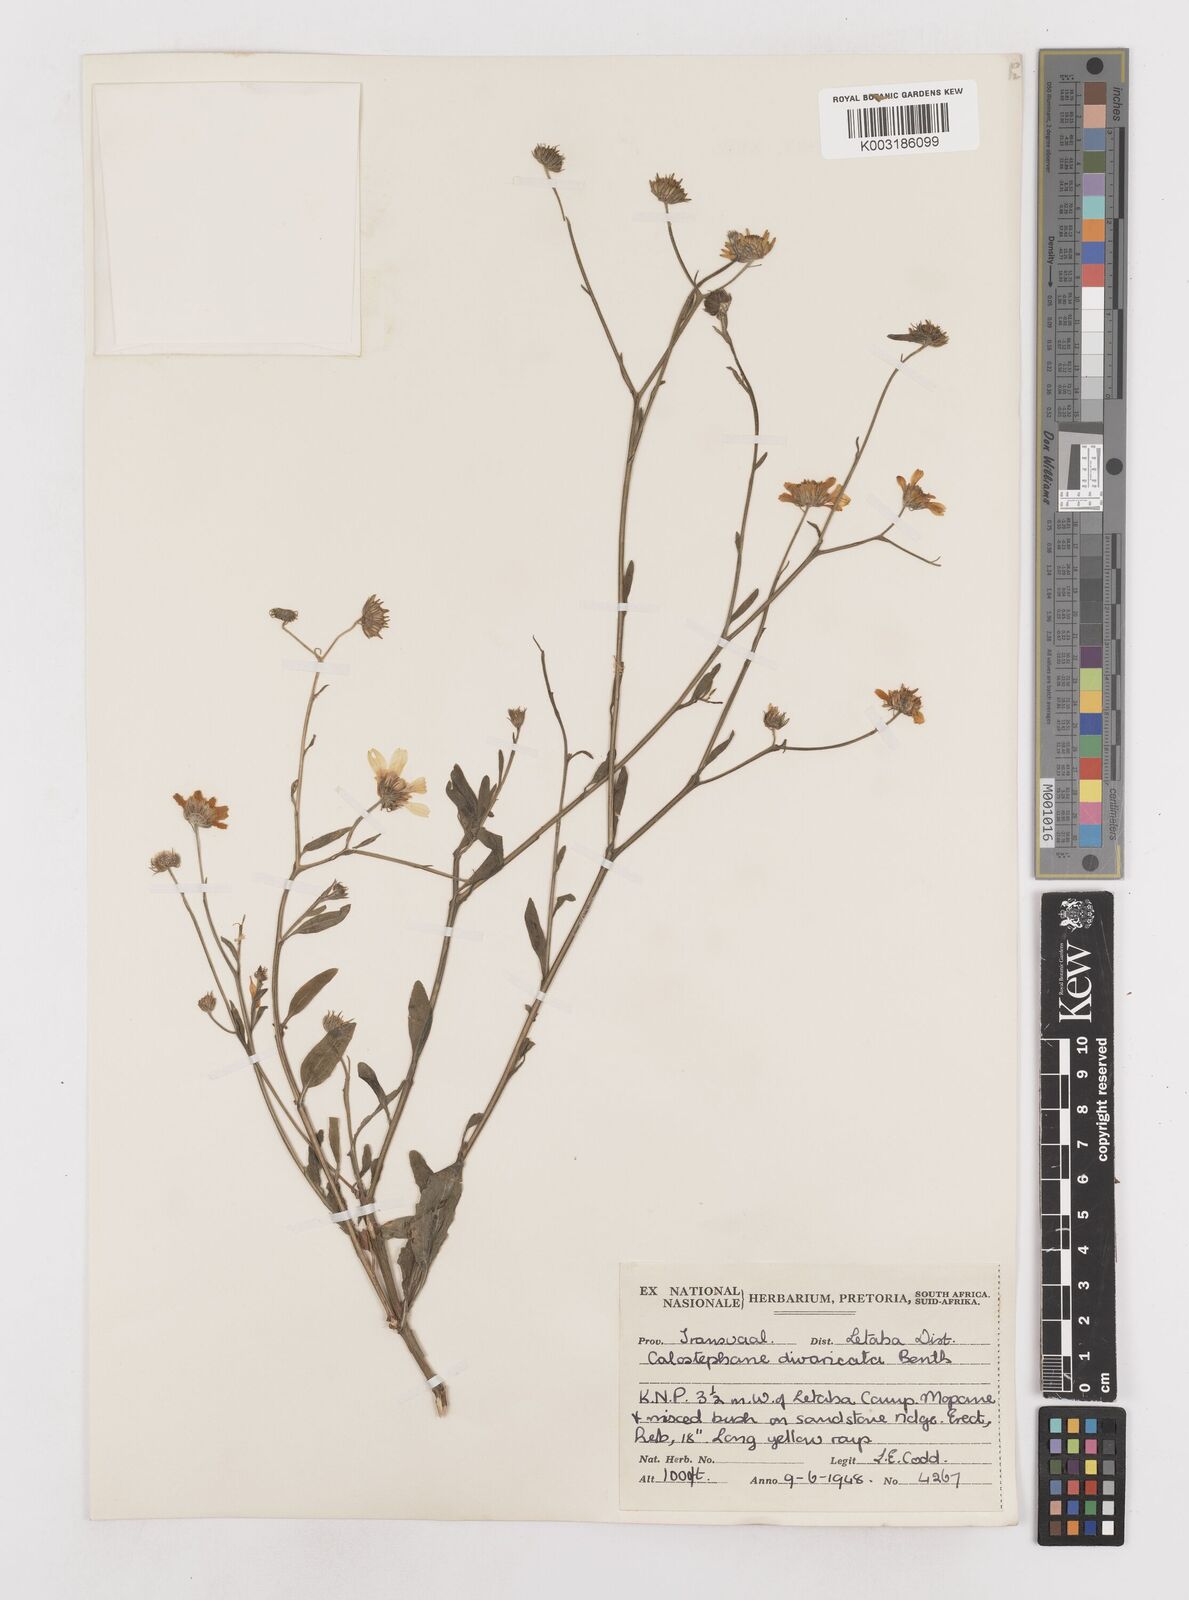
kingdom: Plantae
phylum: Tracheophyta
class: Magnoliopsida
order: Asterales
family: Asteraceae
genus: Calostephane
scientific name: Calostephane divaricata
